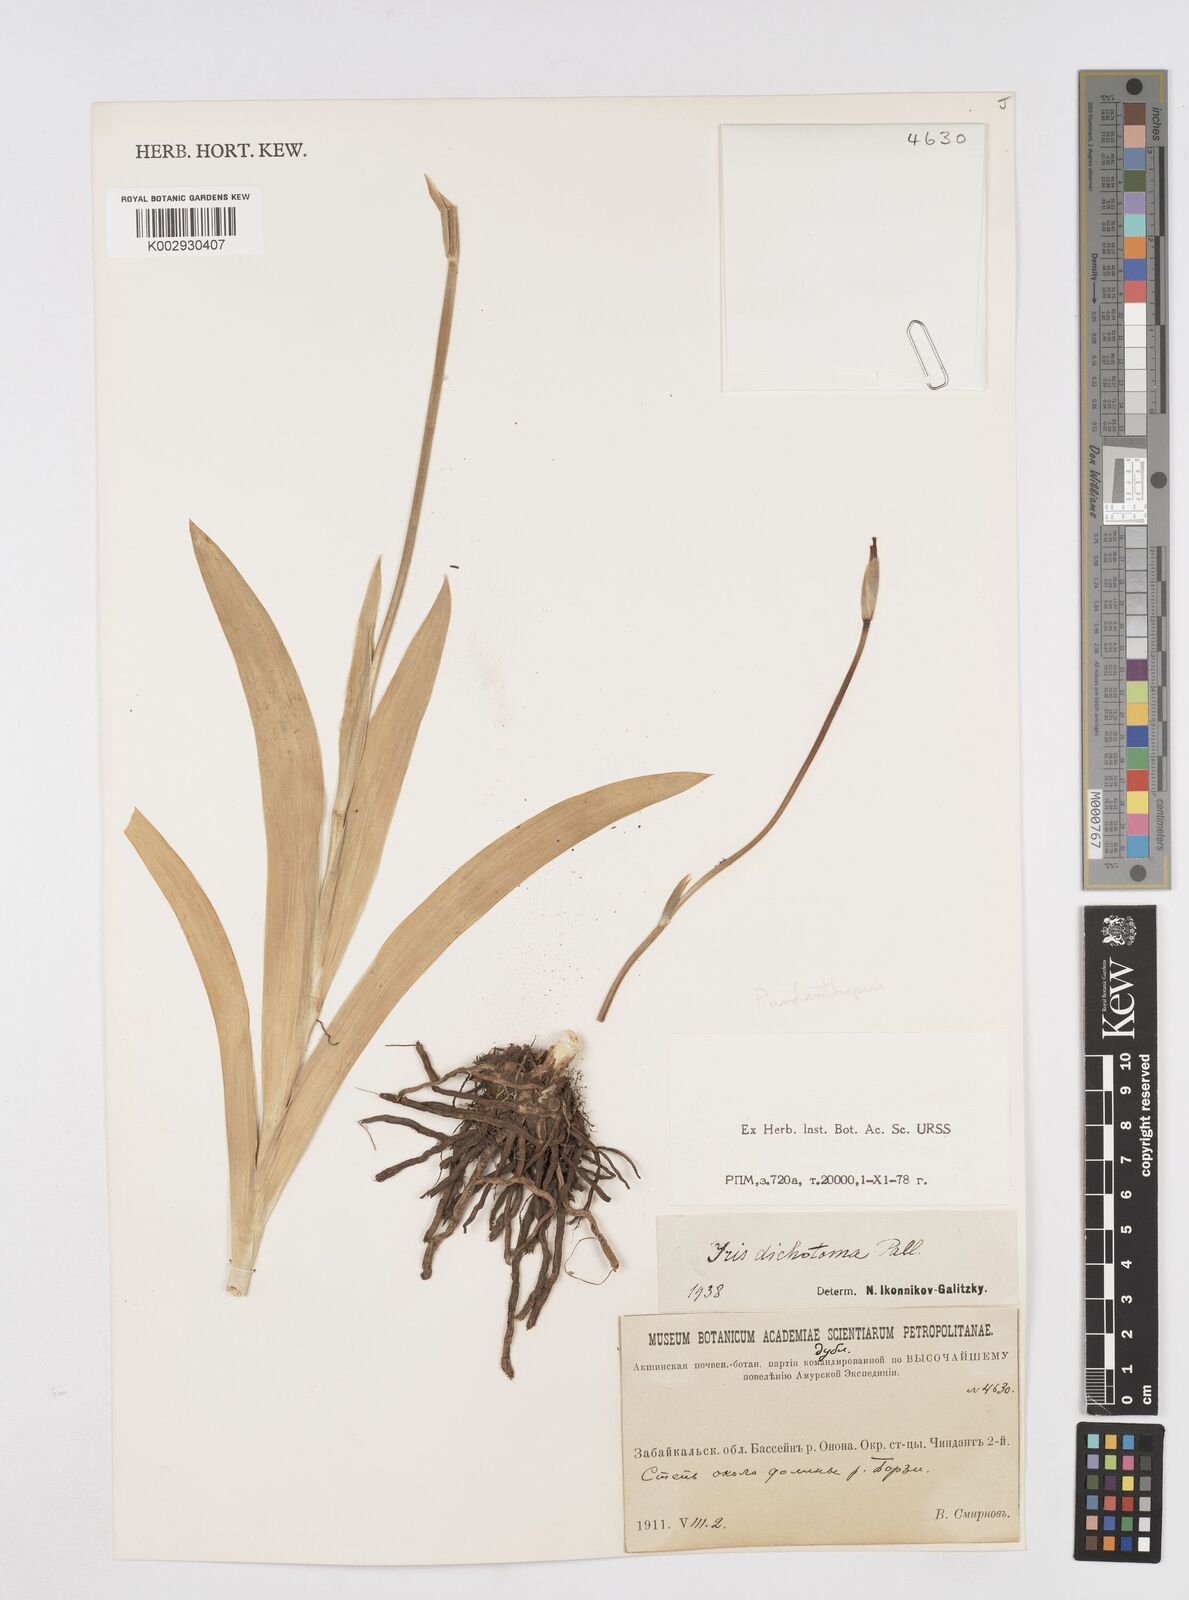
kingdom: Plantae
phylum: Tracheophyta
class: Liliopsida
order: Asparagales
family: Iridaceae
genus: Iris
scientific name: Iris dichotoma
